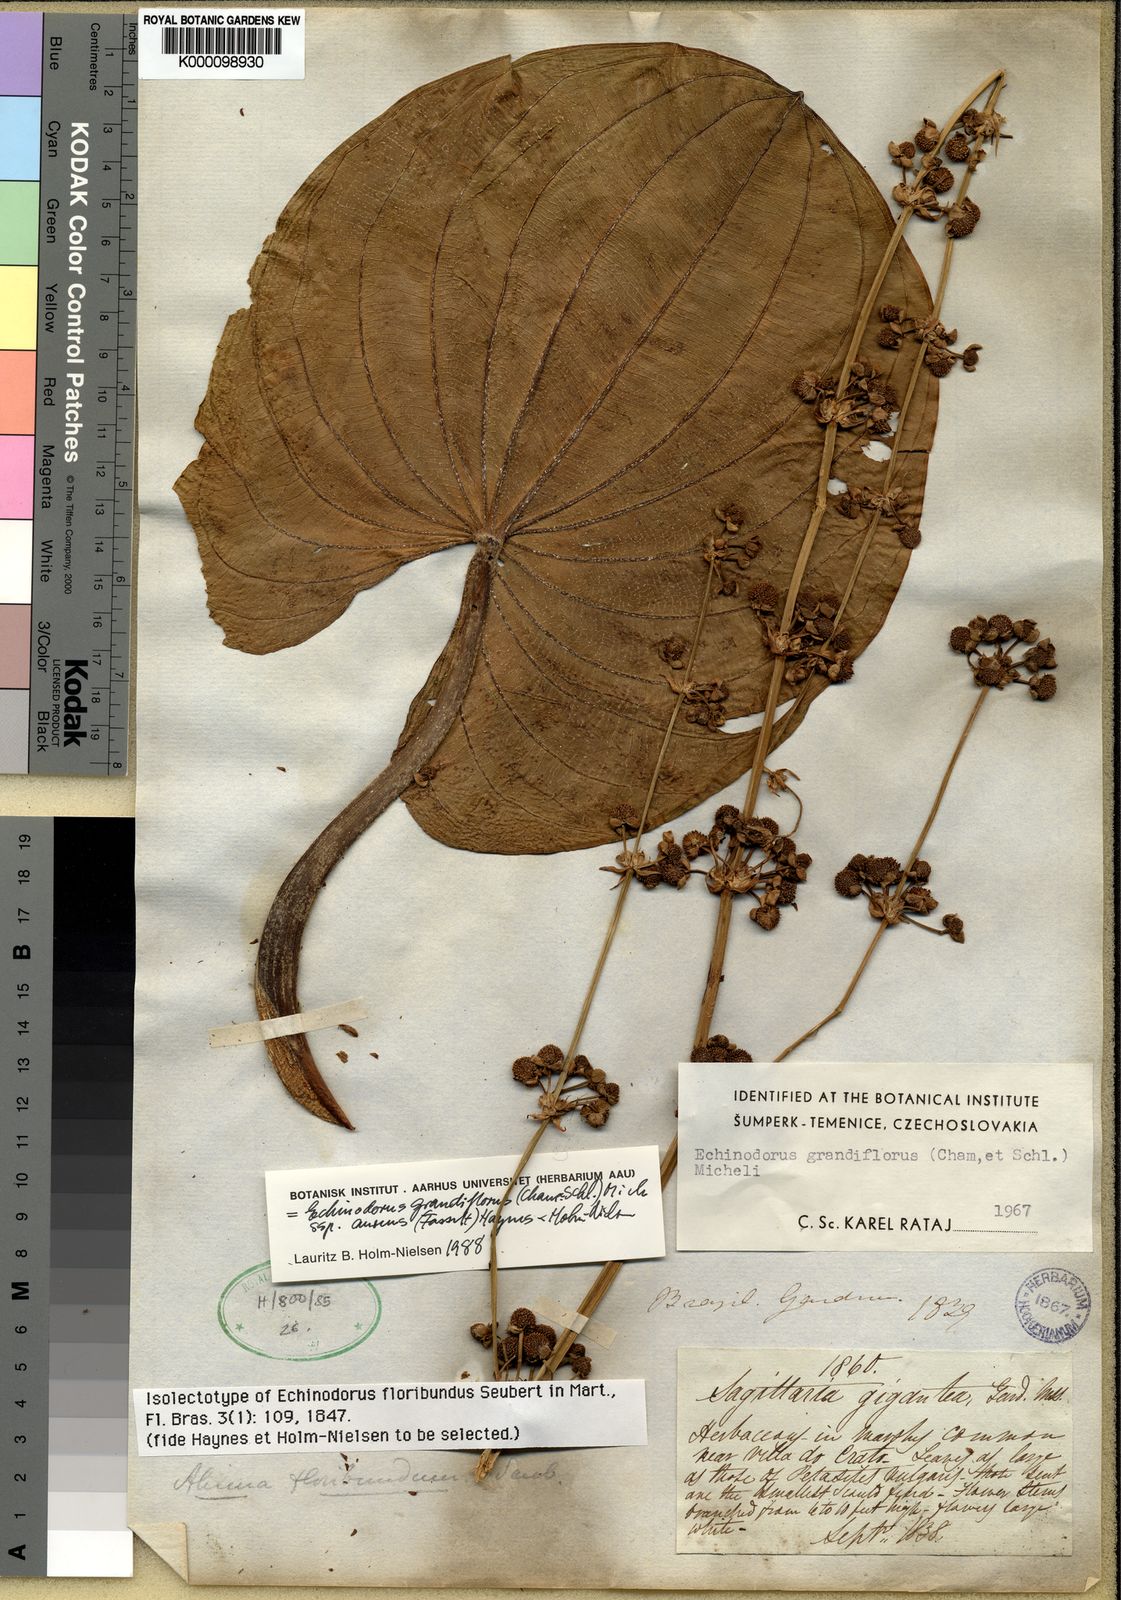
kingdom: Plantae
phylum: Tracheophyta
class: Liliopsida
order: Alismatales
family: Alismataceae
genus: Aquarius
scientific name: Aquarius floribundus
